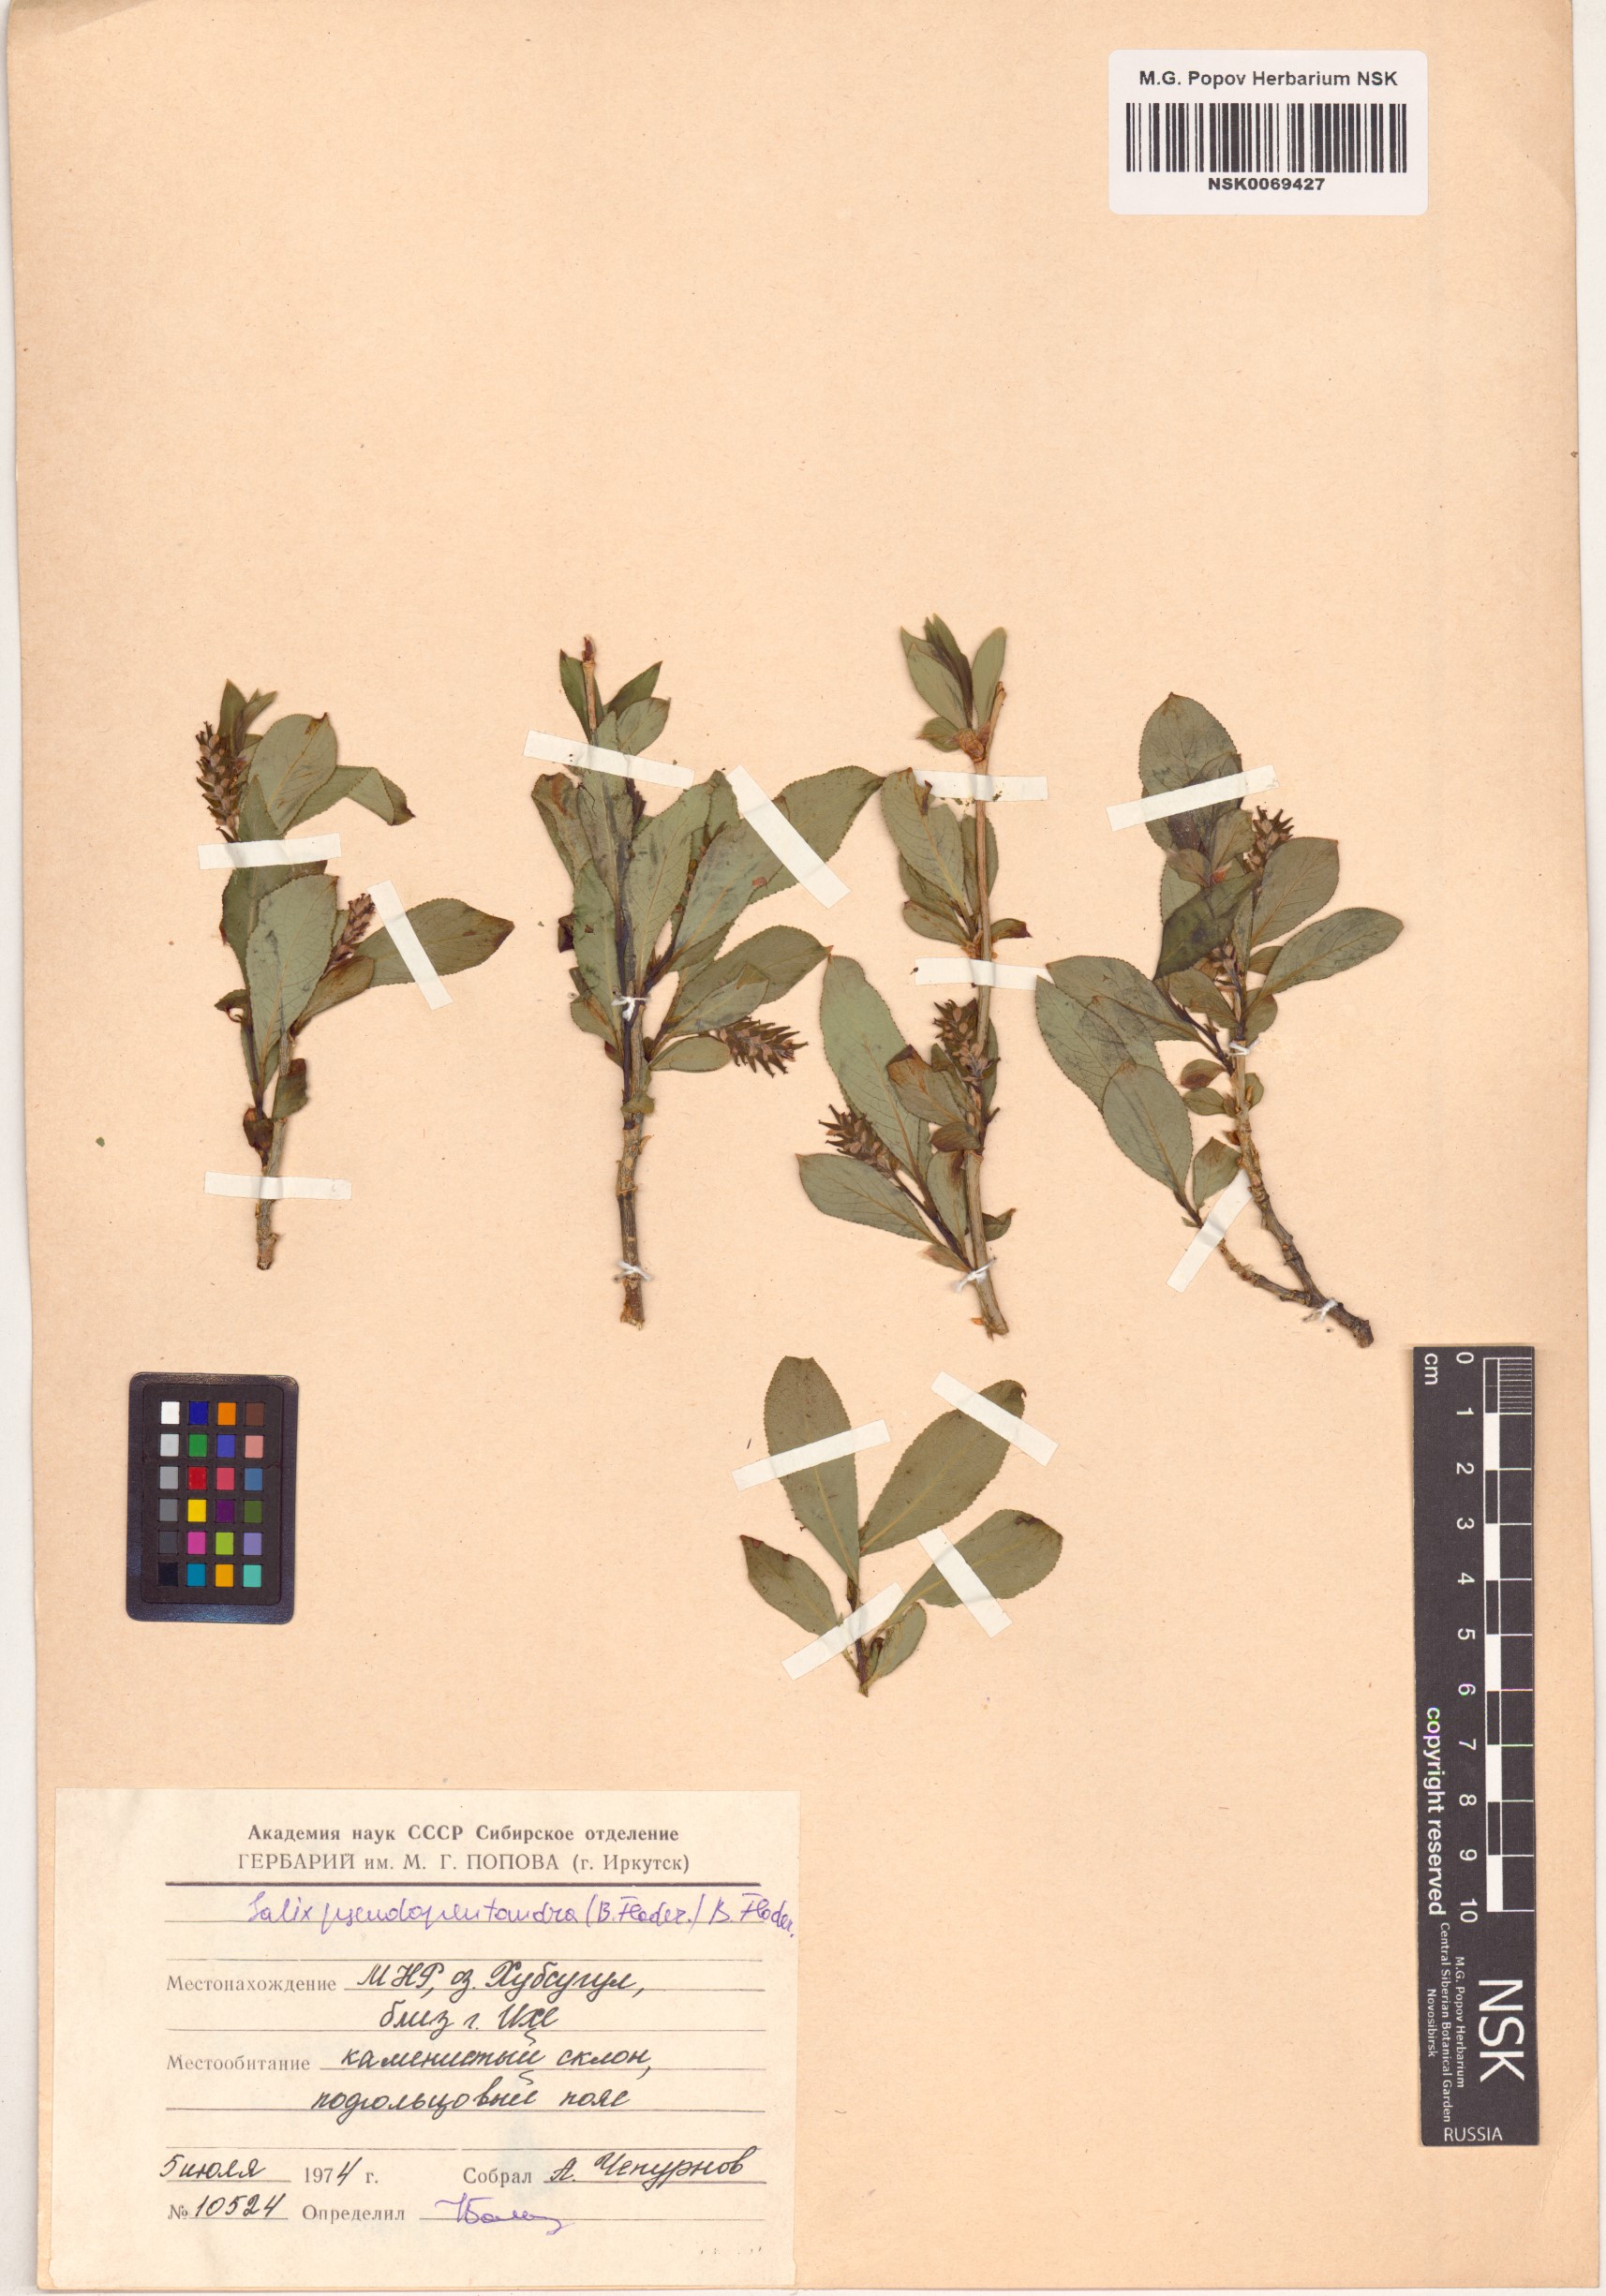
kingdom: Plantae
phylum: Tracheophyta
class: Magnoliopsida
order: Malpighiales
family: Salicaceae
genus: Salix
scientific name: Salix pseudopentandra
